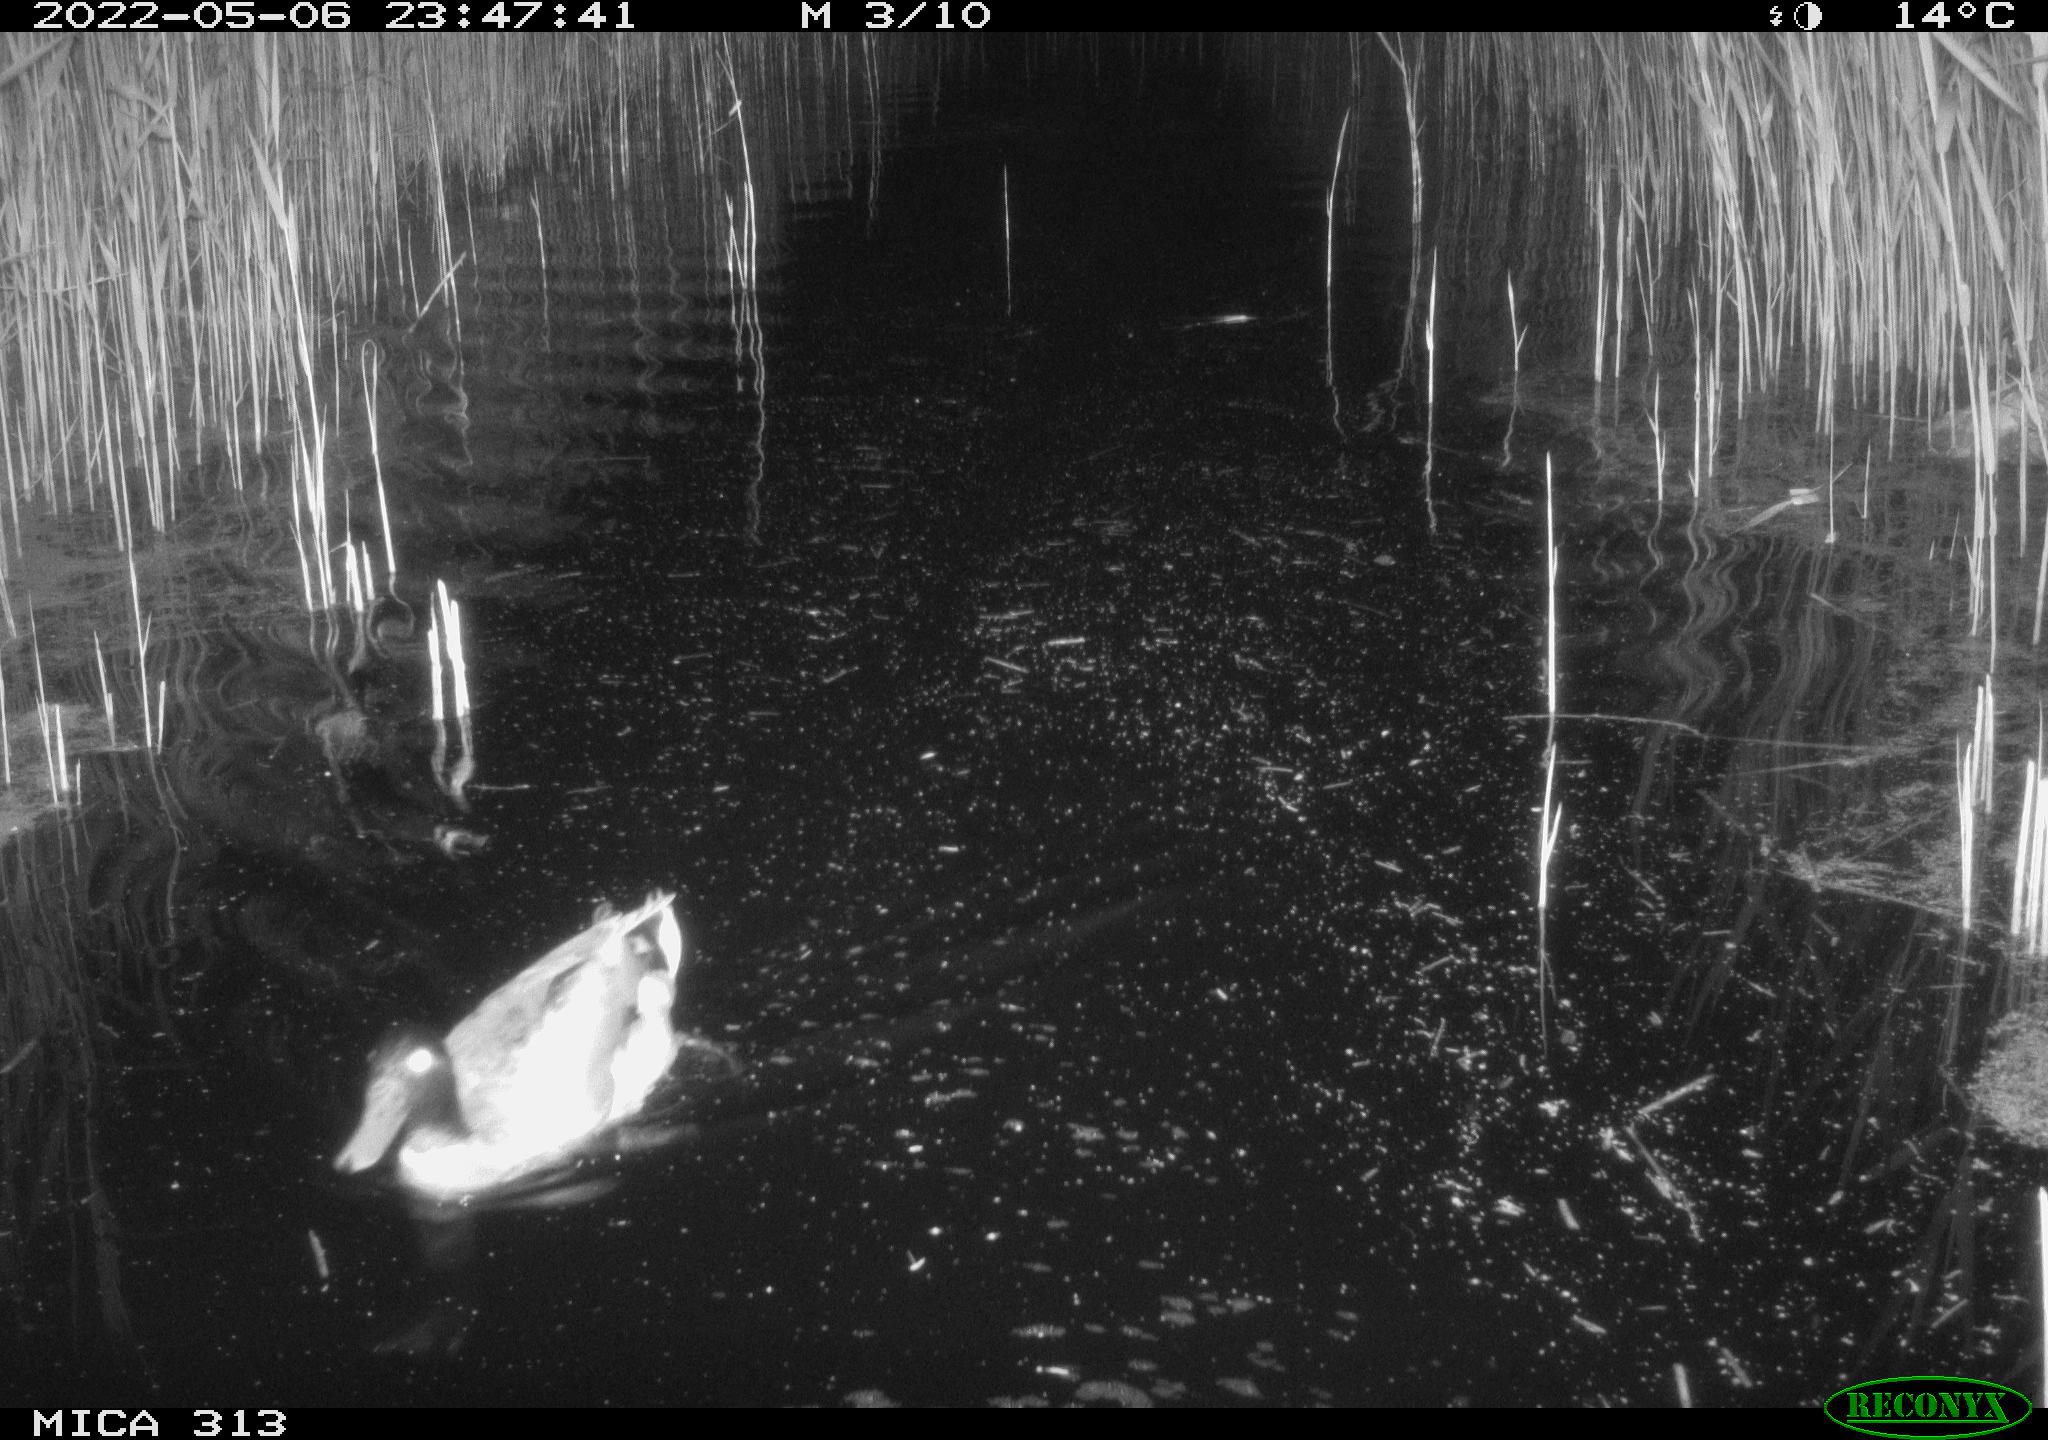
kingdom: Animalia
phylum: Chordata
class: Aves
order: Gruiformes
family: Rallidae
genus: Gallinula
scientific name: Gallinula chloropus
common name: Common moorhen
